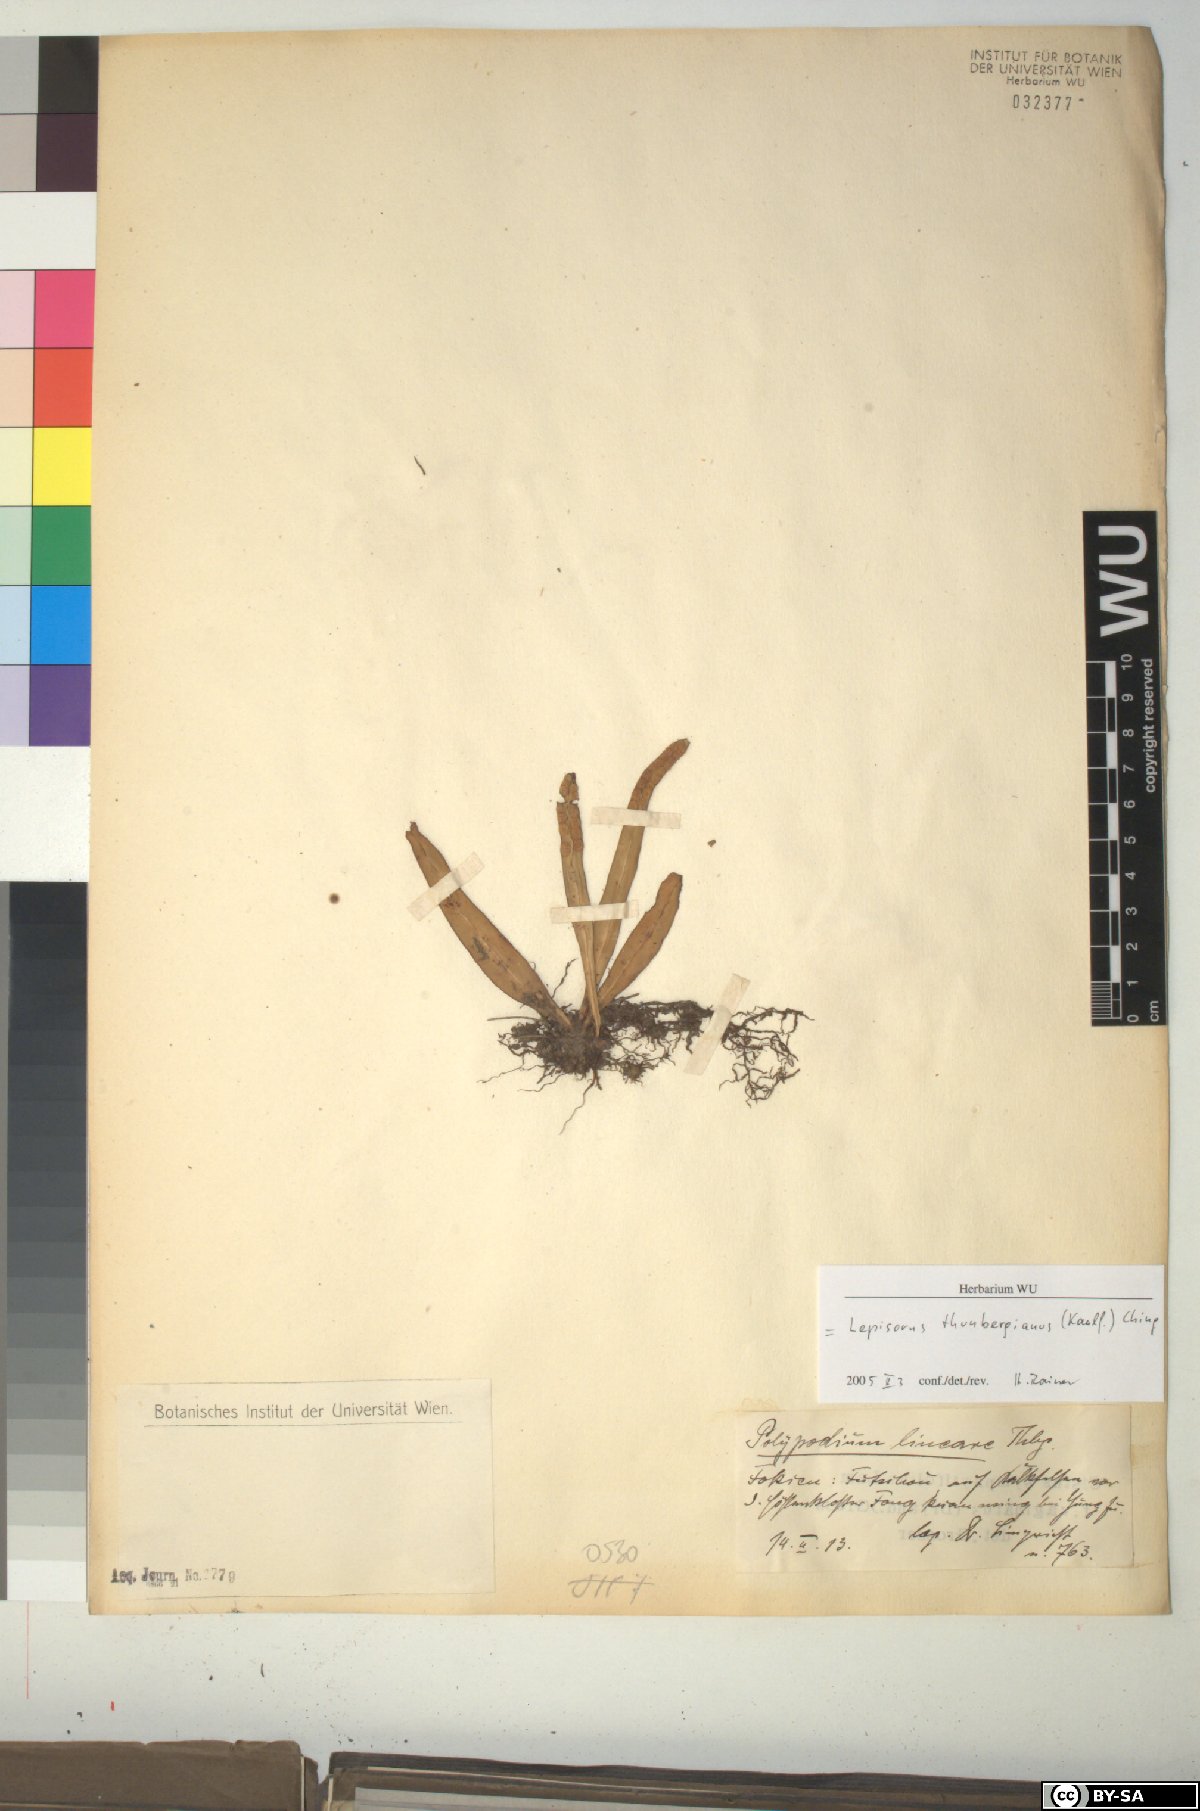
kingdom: Plantae
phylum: Tracheophyta
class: Polypodiopsida
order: Polypodiales
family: Polypodiaceae
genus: Lepisorus
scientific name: Lepisorus thunbergianus
